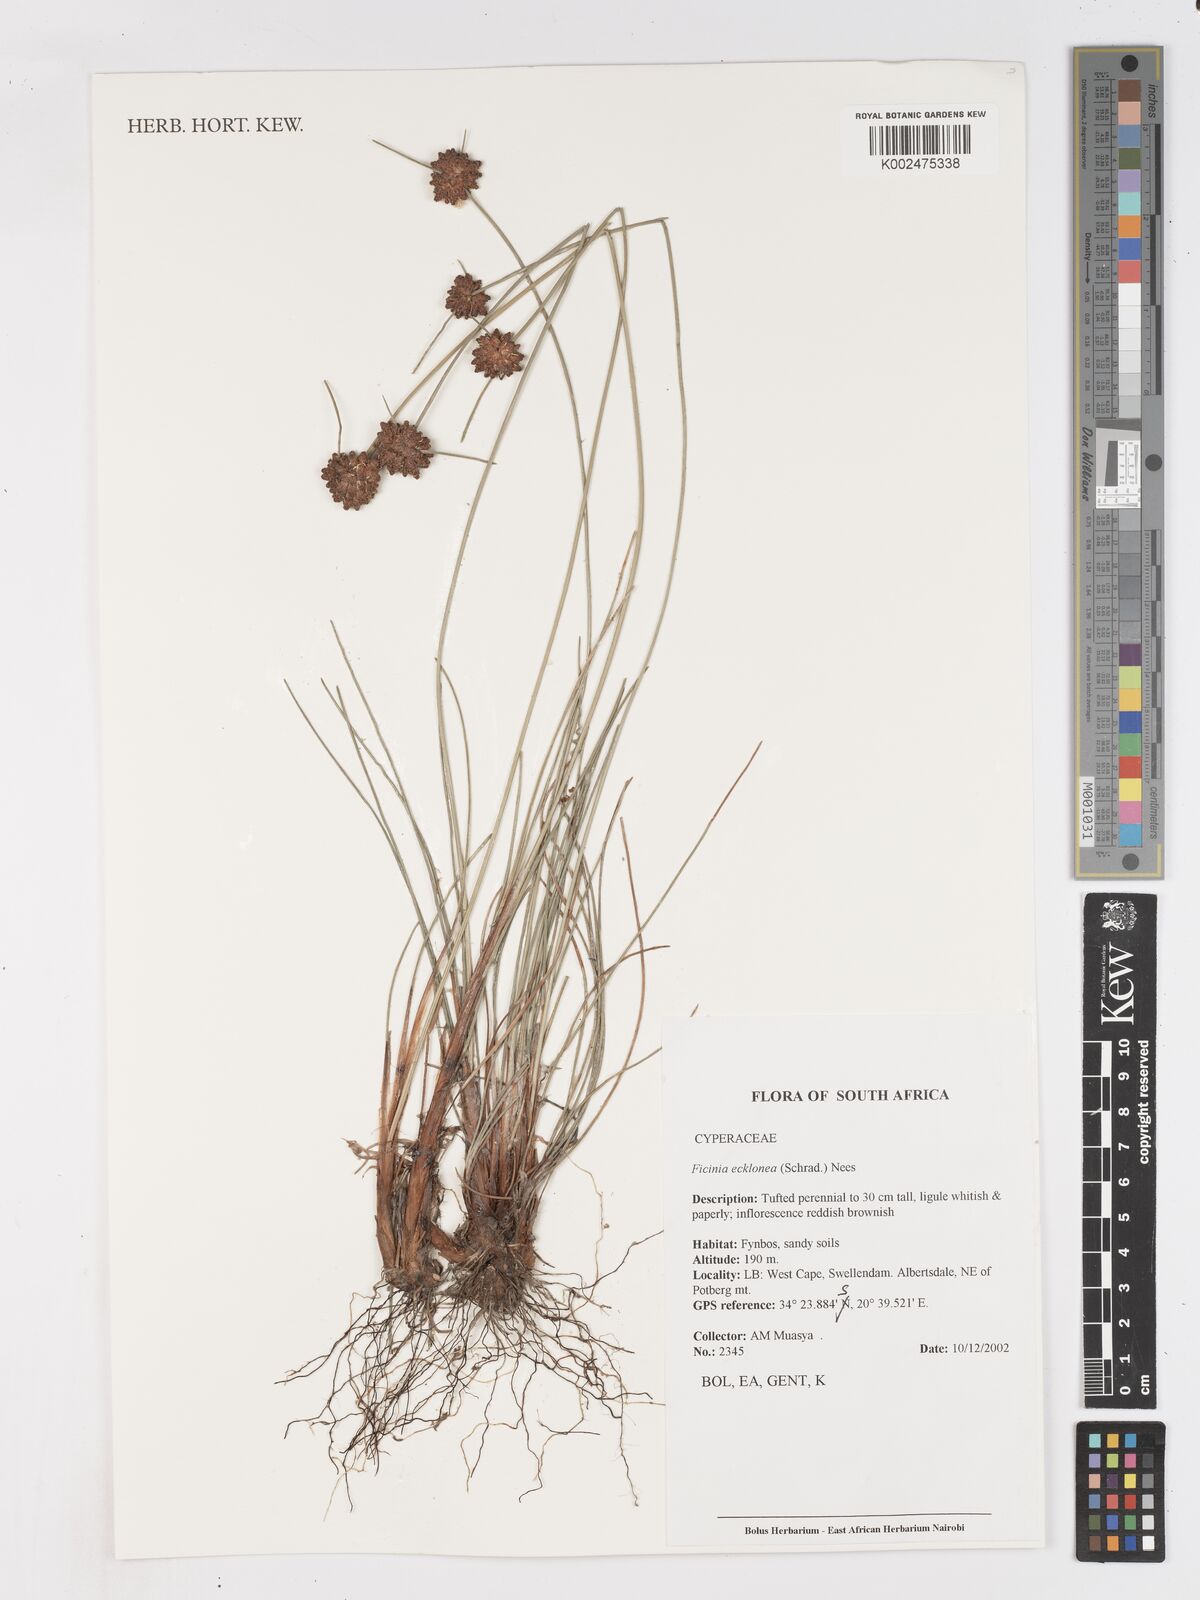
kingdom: Plantae
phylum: Tracheophyta
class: Liliopsida
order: Poales
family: Cyperaceae
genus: Ficinia
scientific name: Ficinia ecklonea
